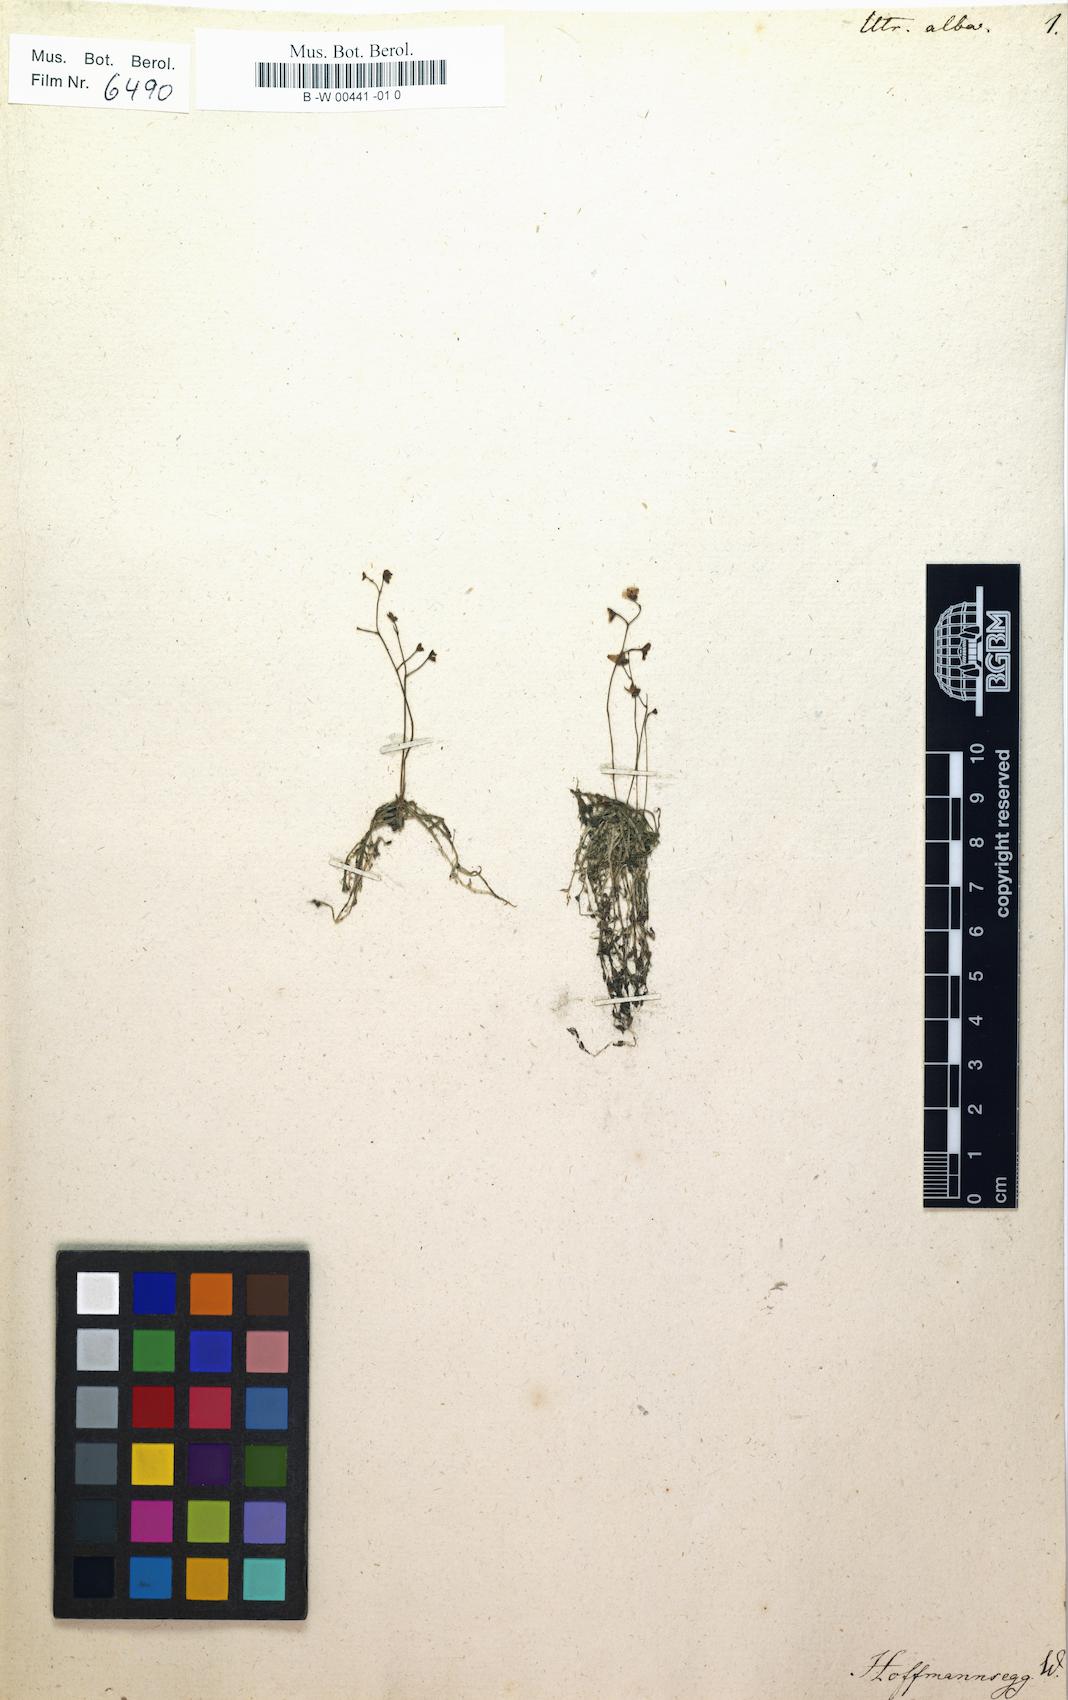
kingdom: Plantae
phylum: Tracheophyta
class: Magnoliopsida
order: Lamiales
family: Lentibulariaceae
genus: Utricularia
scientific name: Utricularia gibba
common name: Humped bladderwort
